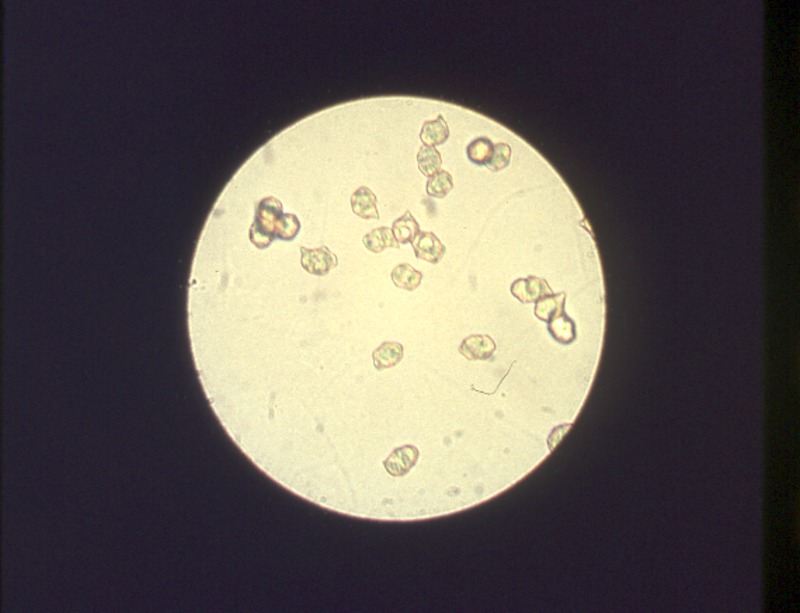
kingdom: Fungi
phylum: Basidiomycota
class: Agaricomycetes
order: Agaricales
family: Entolomataceae
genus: Entoloma
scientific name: Entoloma rhodopolium
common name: Wood pinkgill
